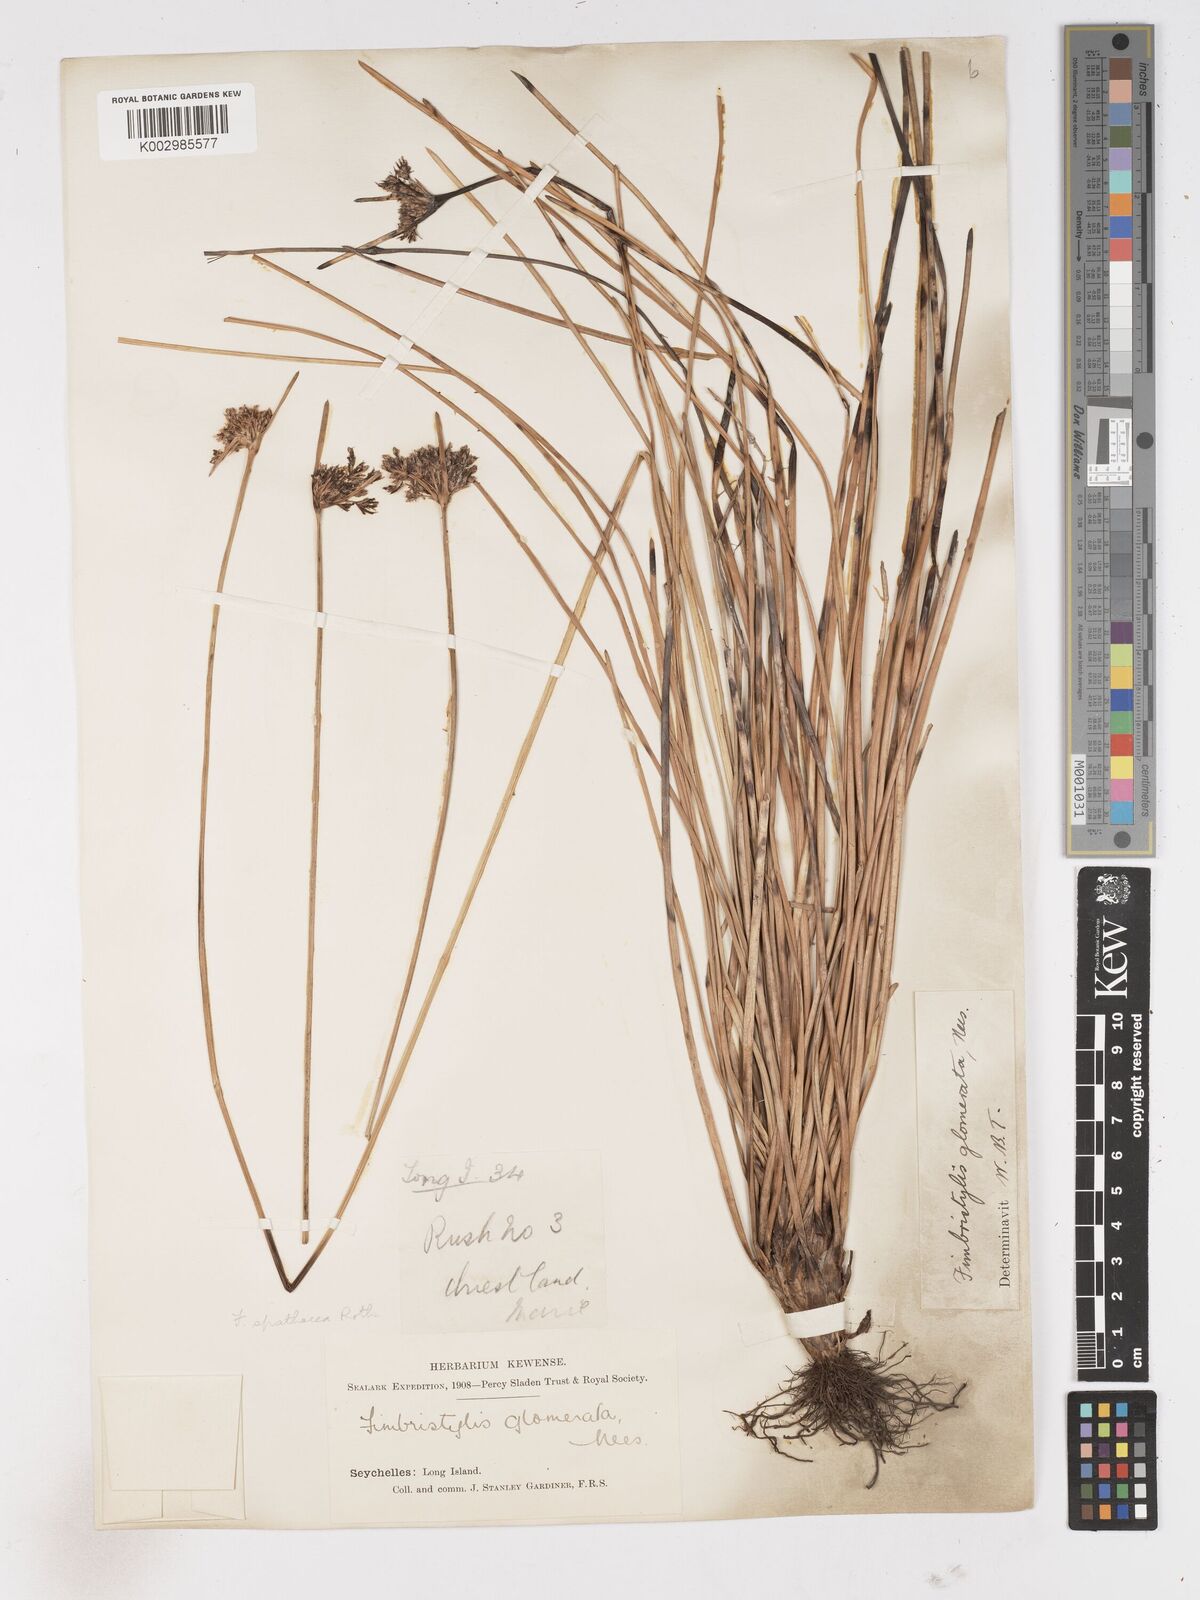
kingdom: Plantae
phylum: Tracheophyta
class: Liliopsida
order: Poales
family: Cyperaceae
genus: Fimbristylis
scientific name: Fimbristylis cymosa
